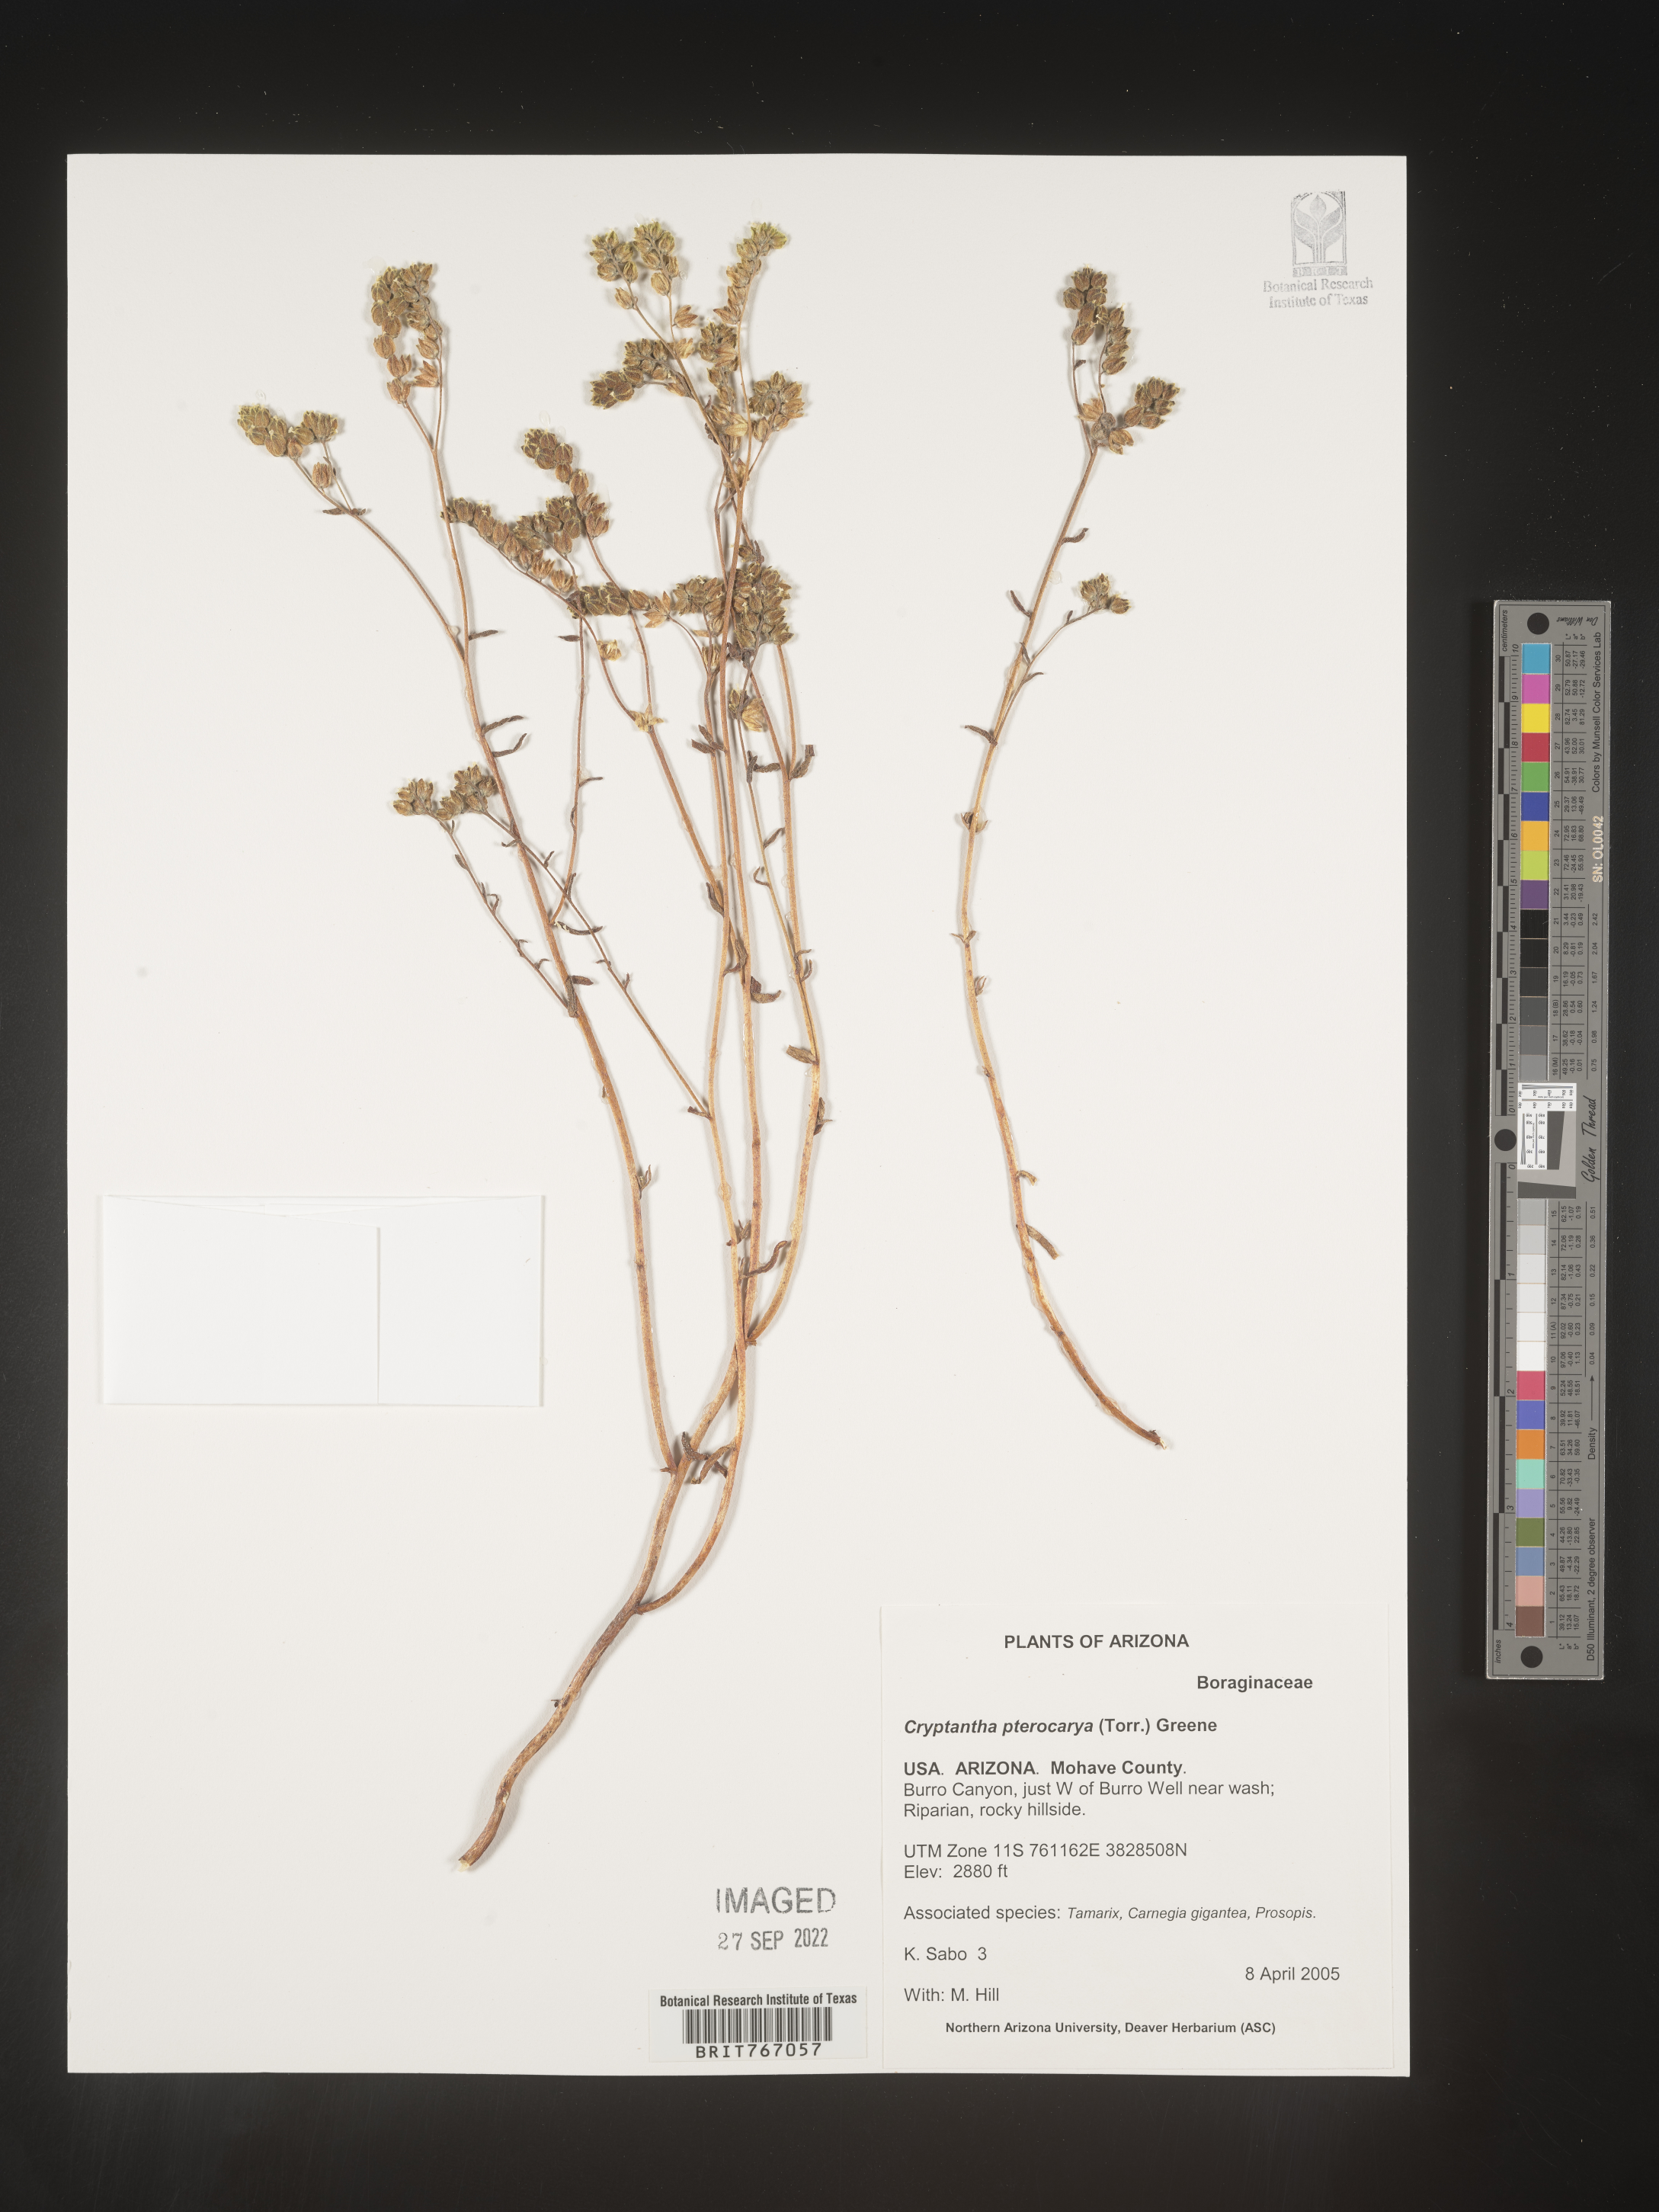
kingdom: Plantae
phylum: Tracheophyta
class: Magnoliopsida
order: Boraginales
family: Boraginaceae
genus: Cryptantha
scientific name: Cryptantha pterocarya
